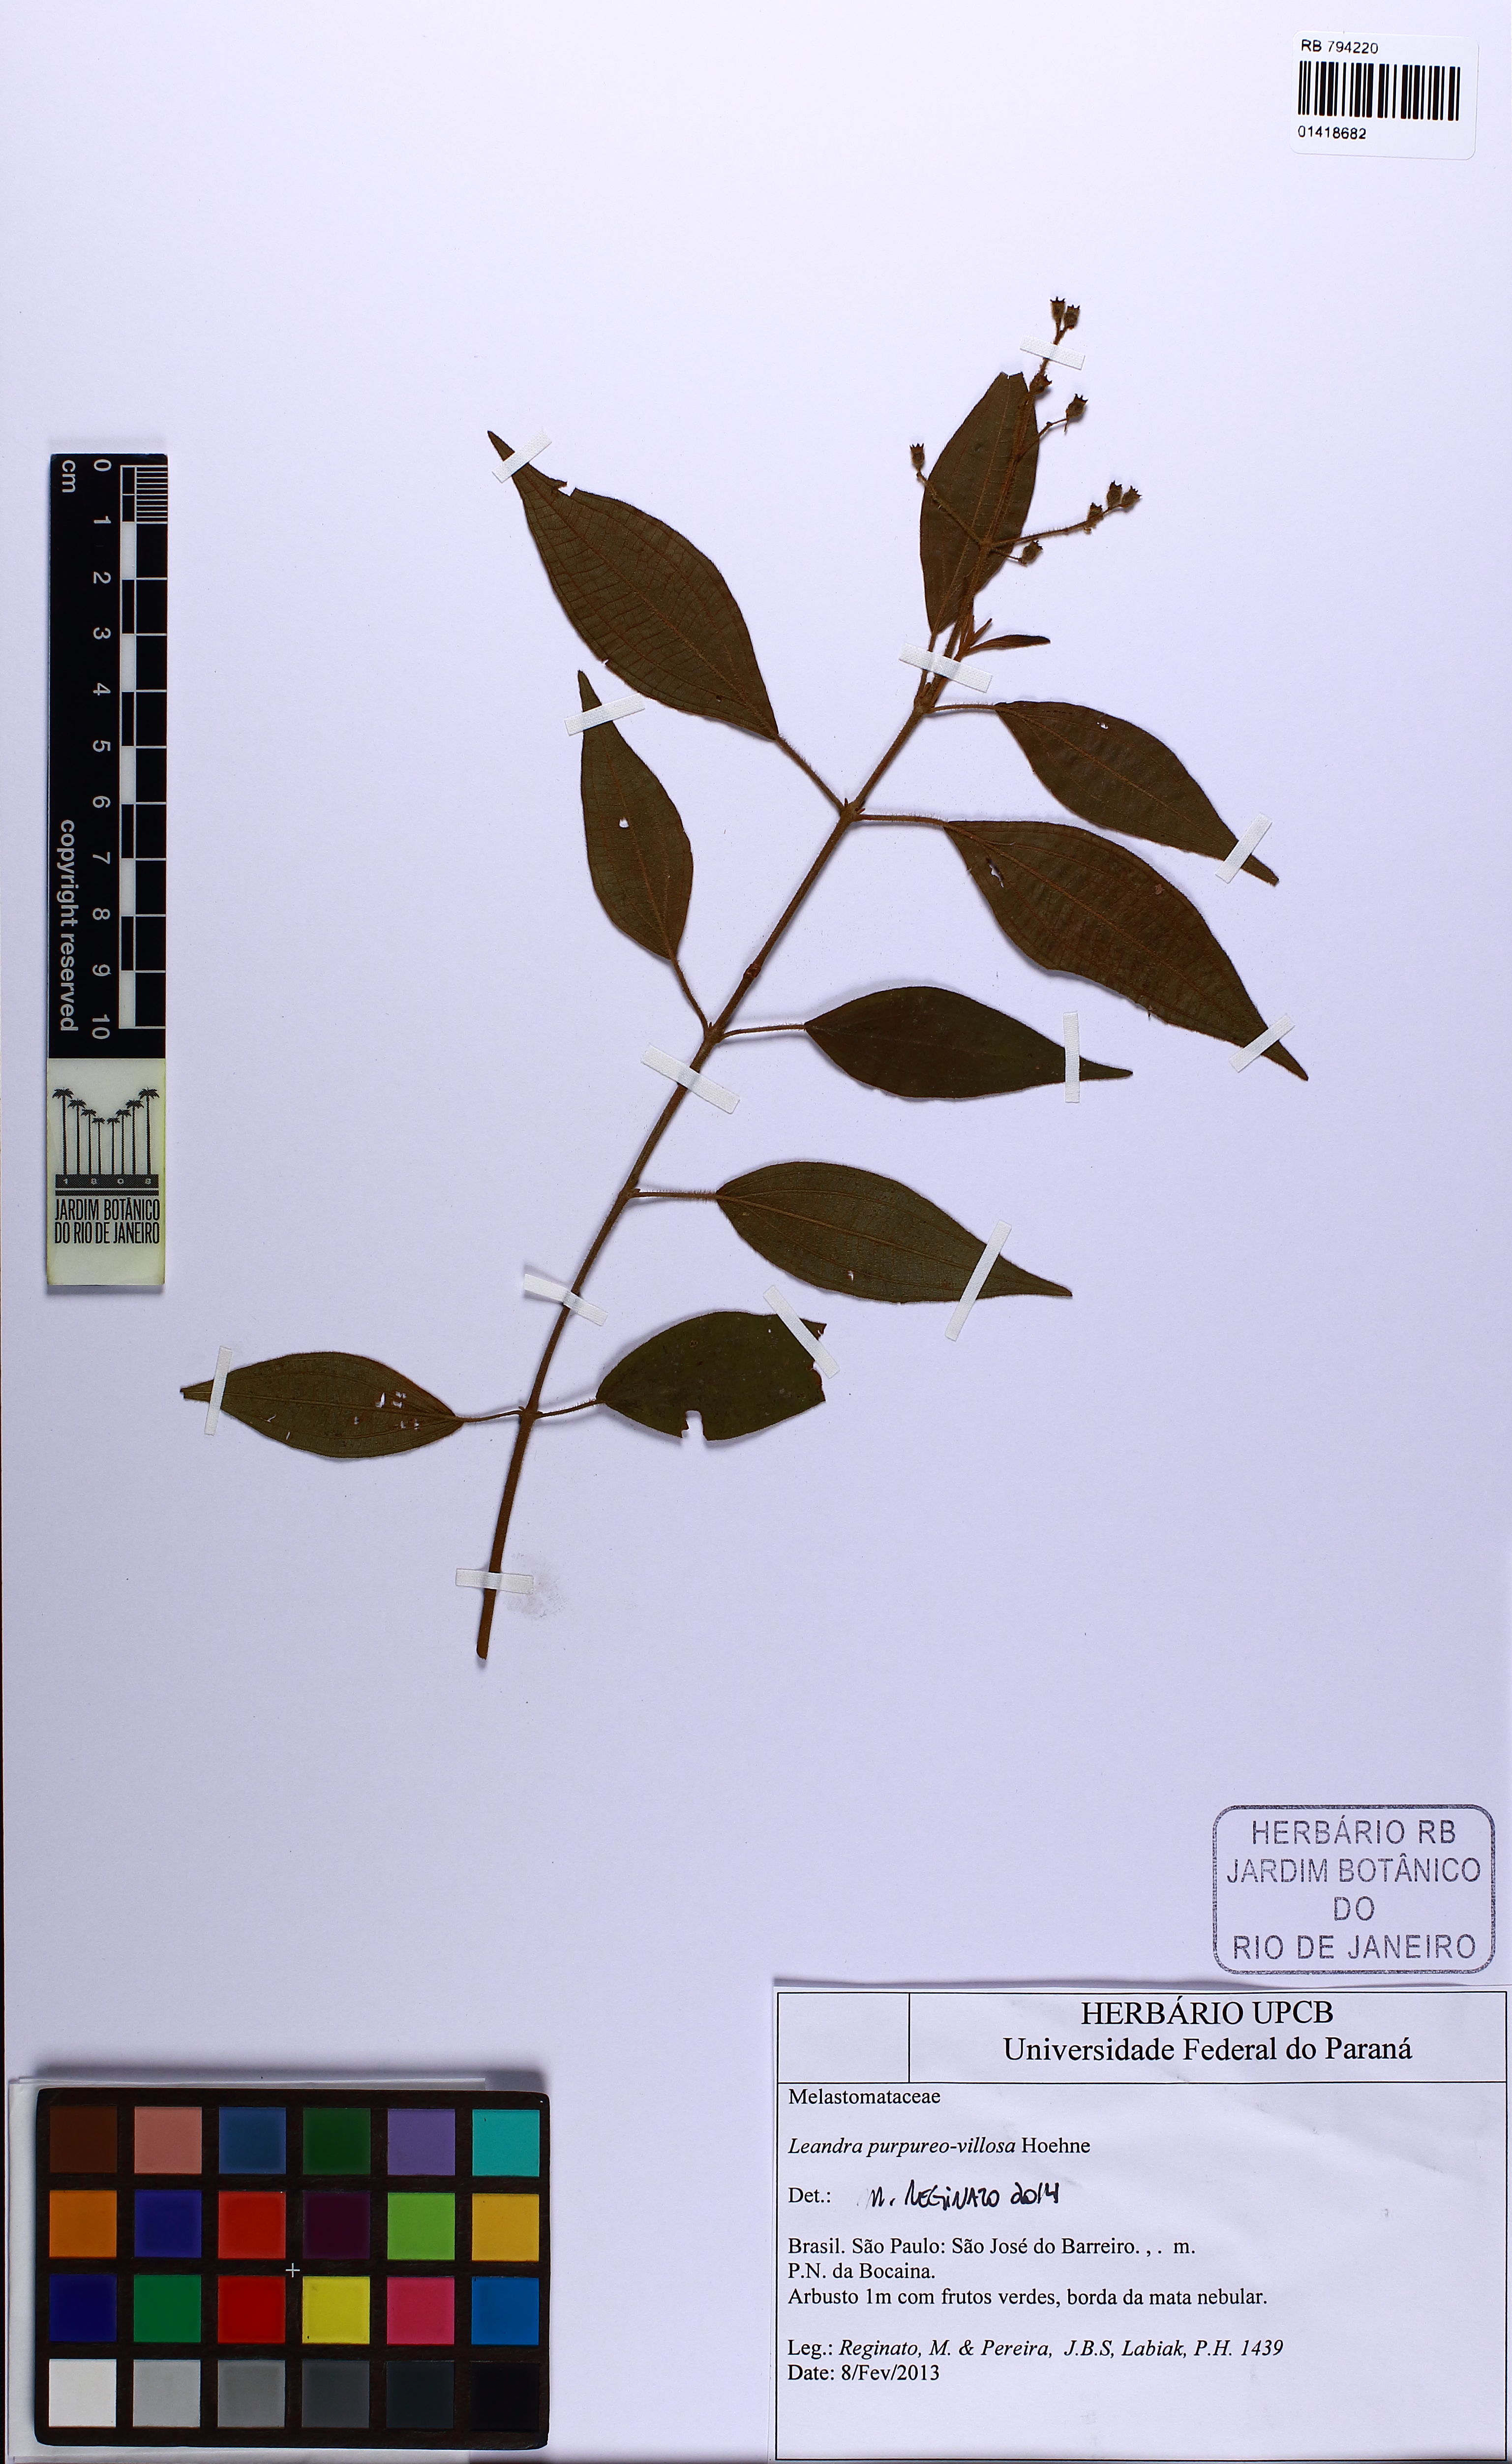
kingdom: Plantae
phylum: Tracheophyta
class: Magnoliopsida
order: Myrtales
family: Melastomataceae
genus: Miconia
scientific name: Miconia purpureovillosa
